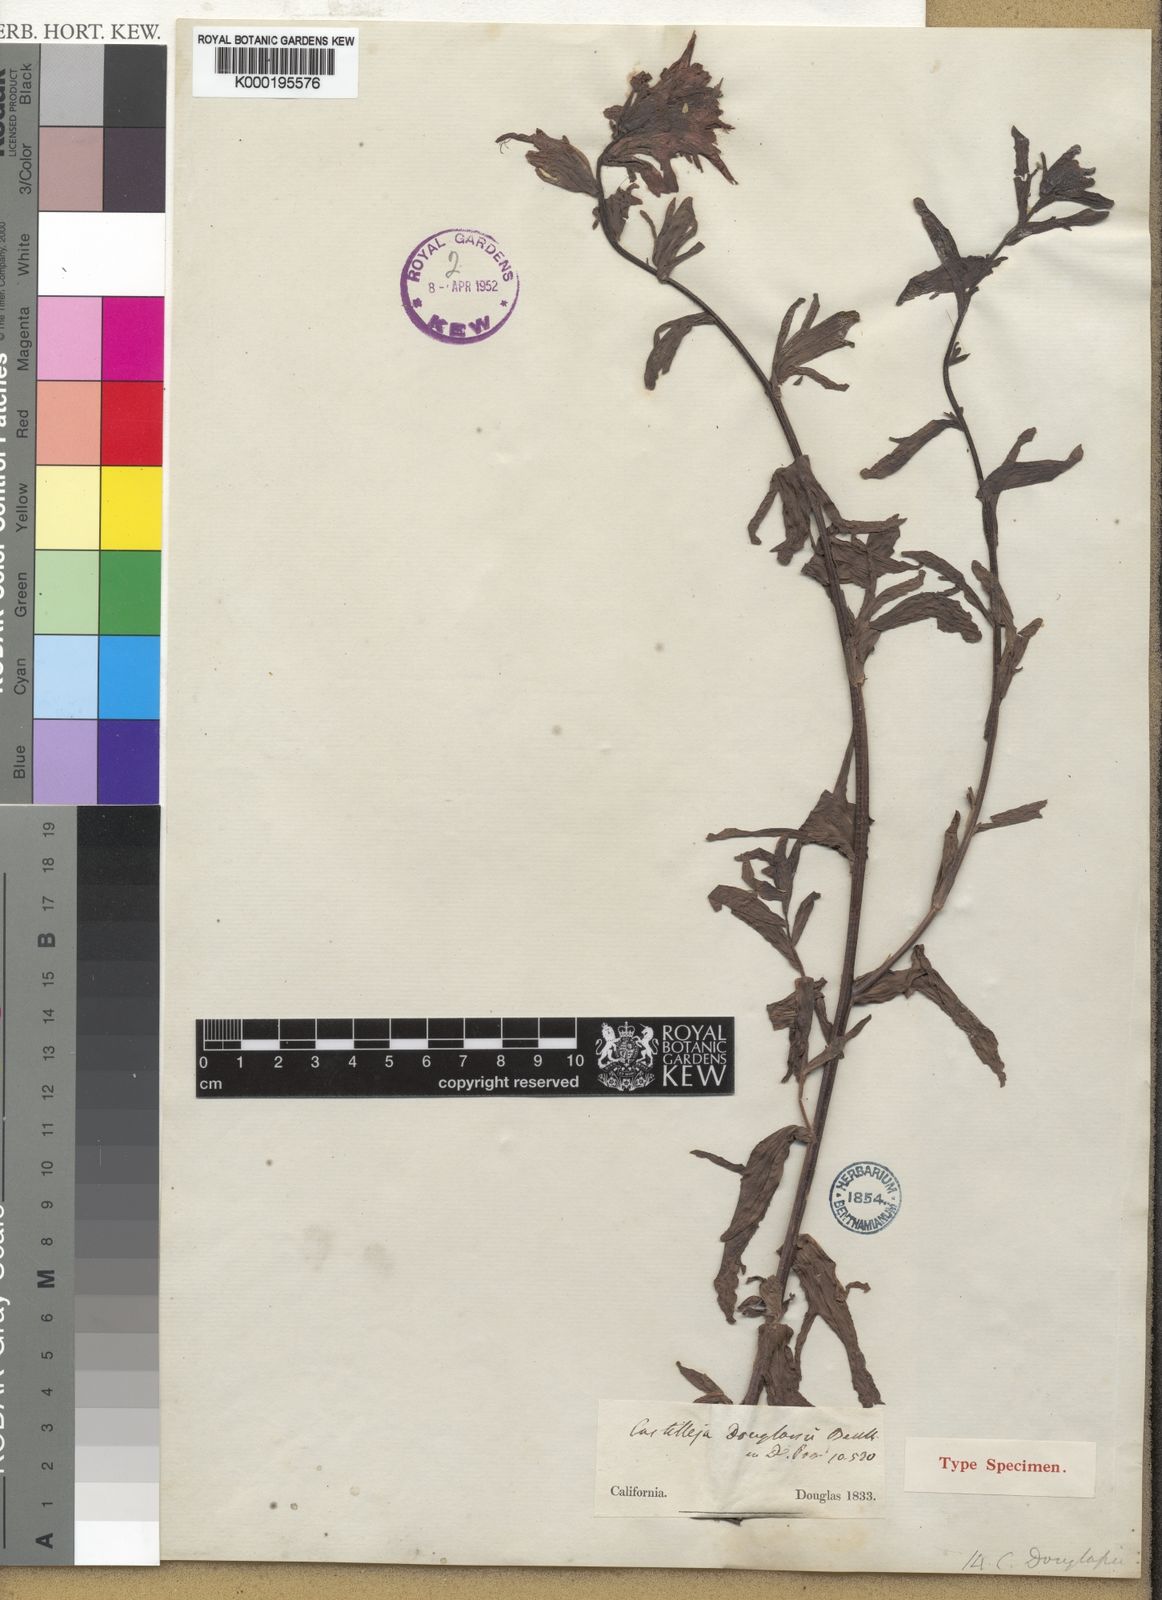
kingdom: Plantae
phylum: Tracheophyta
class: Magnoliopsida
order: Lamiales
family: Orobanchaceae
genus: Castilleja
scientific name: Castilleja affinis
